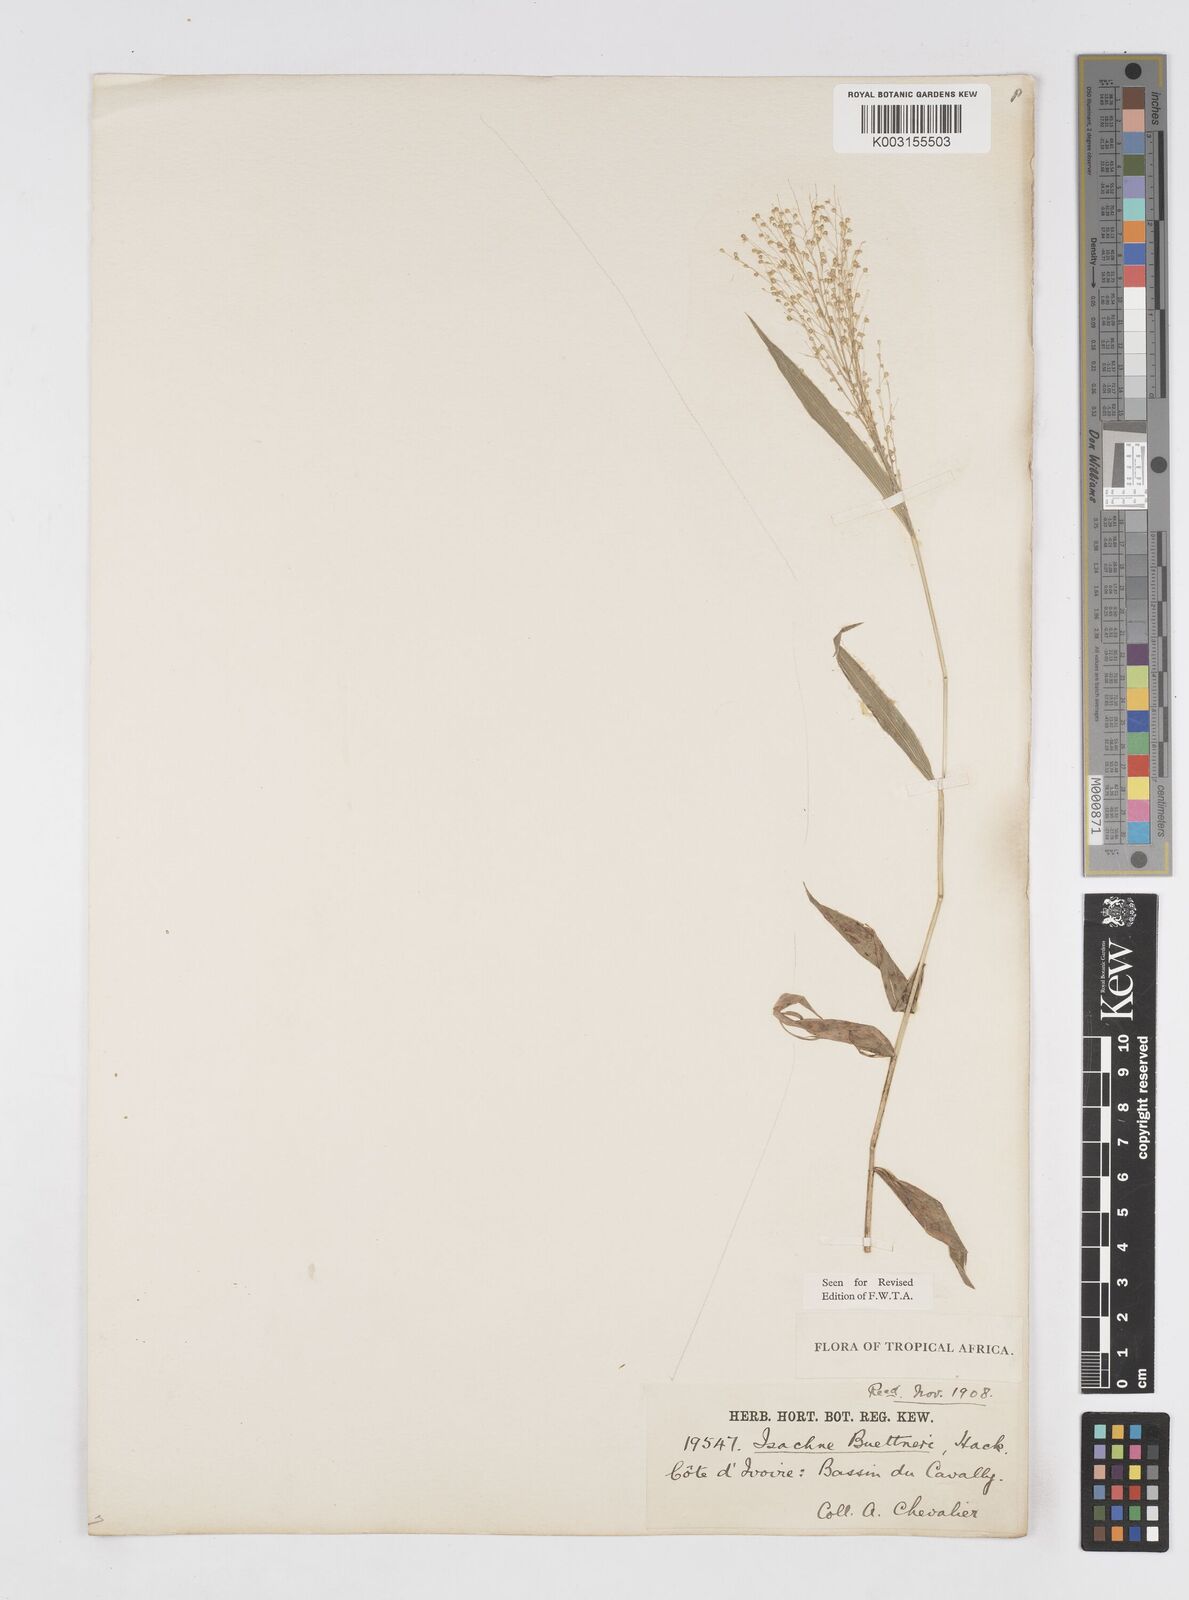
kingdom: Plantae
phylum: Tracheophyta
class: Liliopsida
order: Poales
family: Poaceae
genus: Isachne
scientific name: Isachne albens
